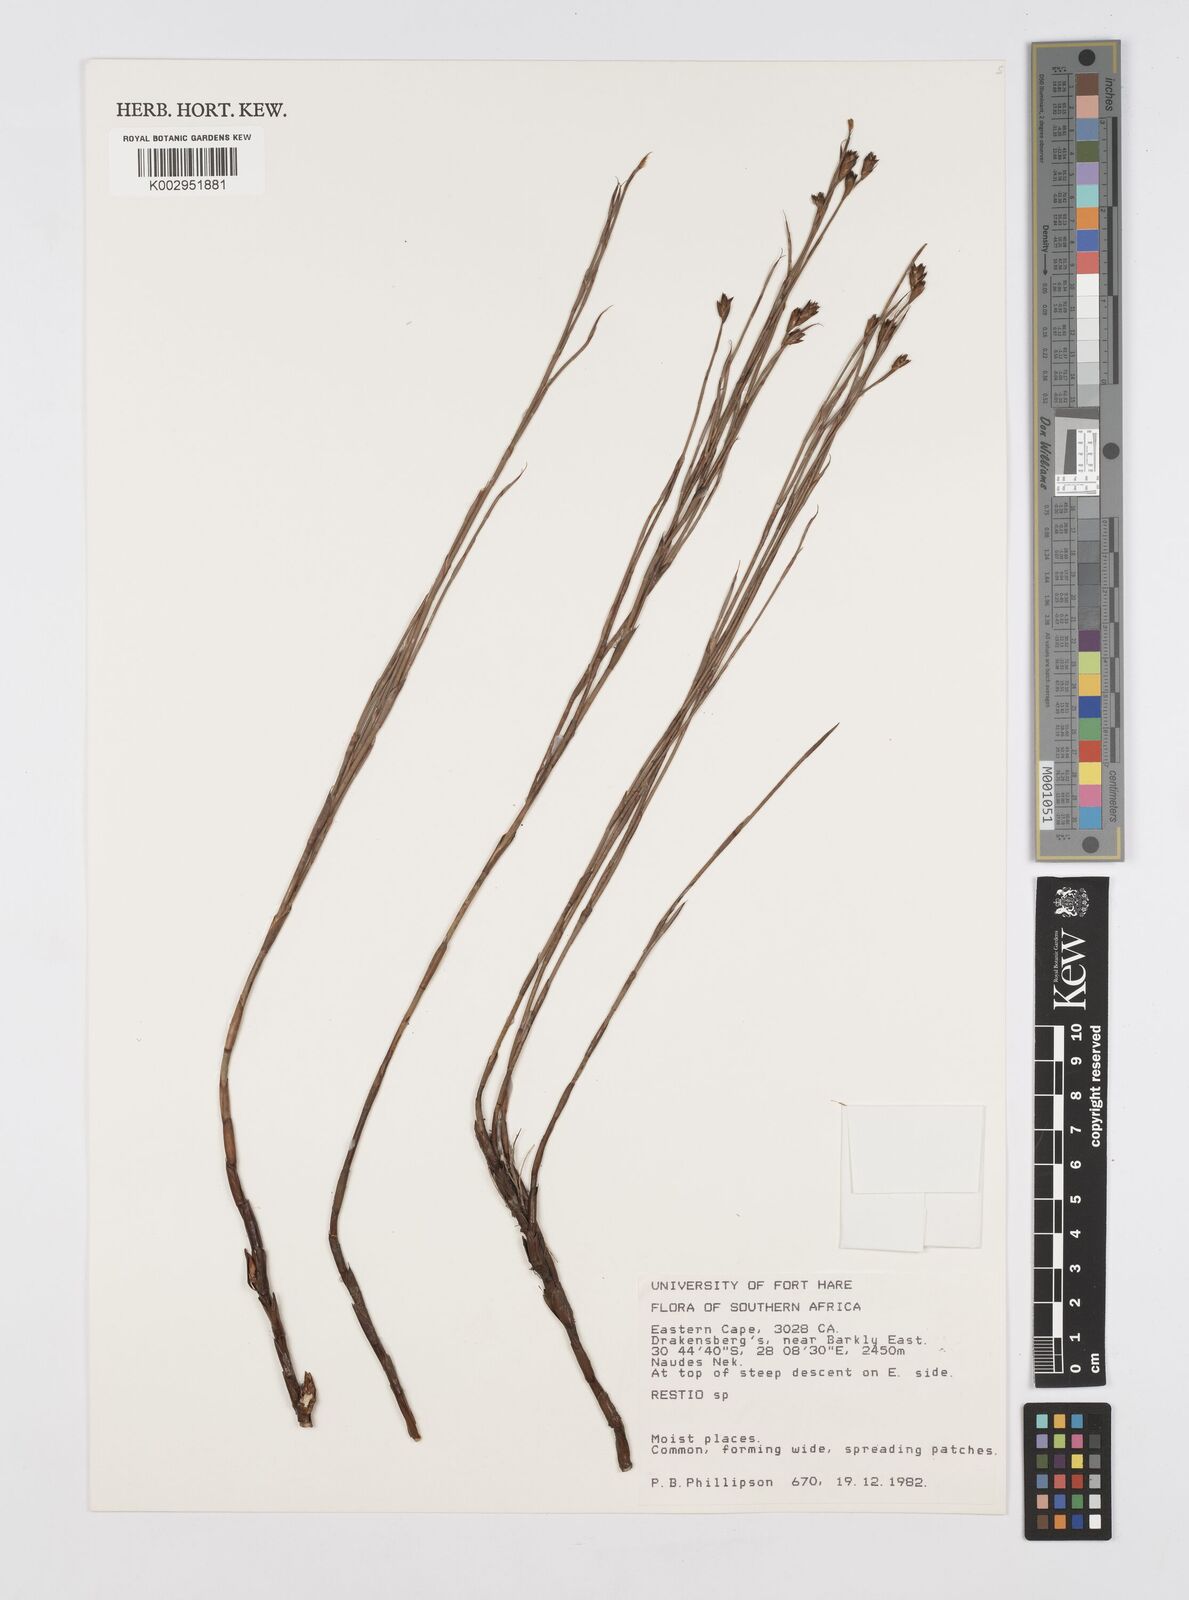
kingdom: Plantae
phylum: Tracheophyta
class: Liliopsida
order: Poales
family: Restionaceae
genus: Restio
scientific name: Restio
